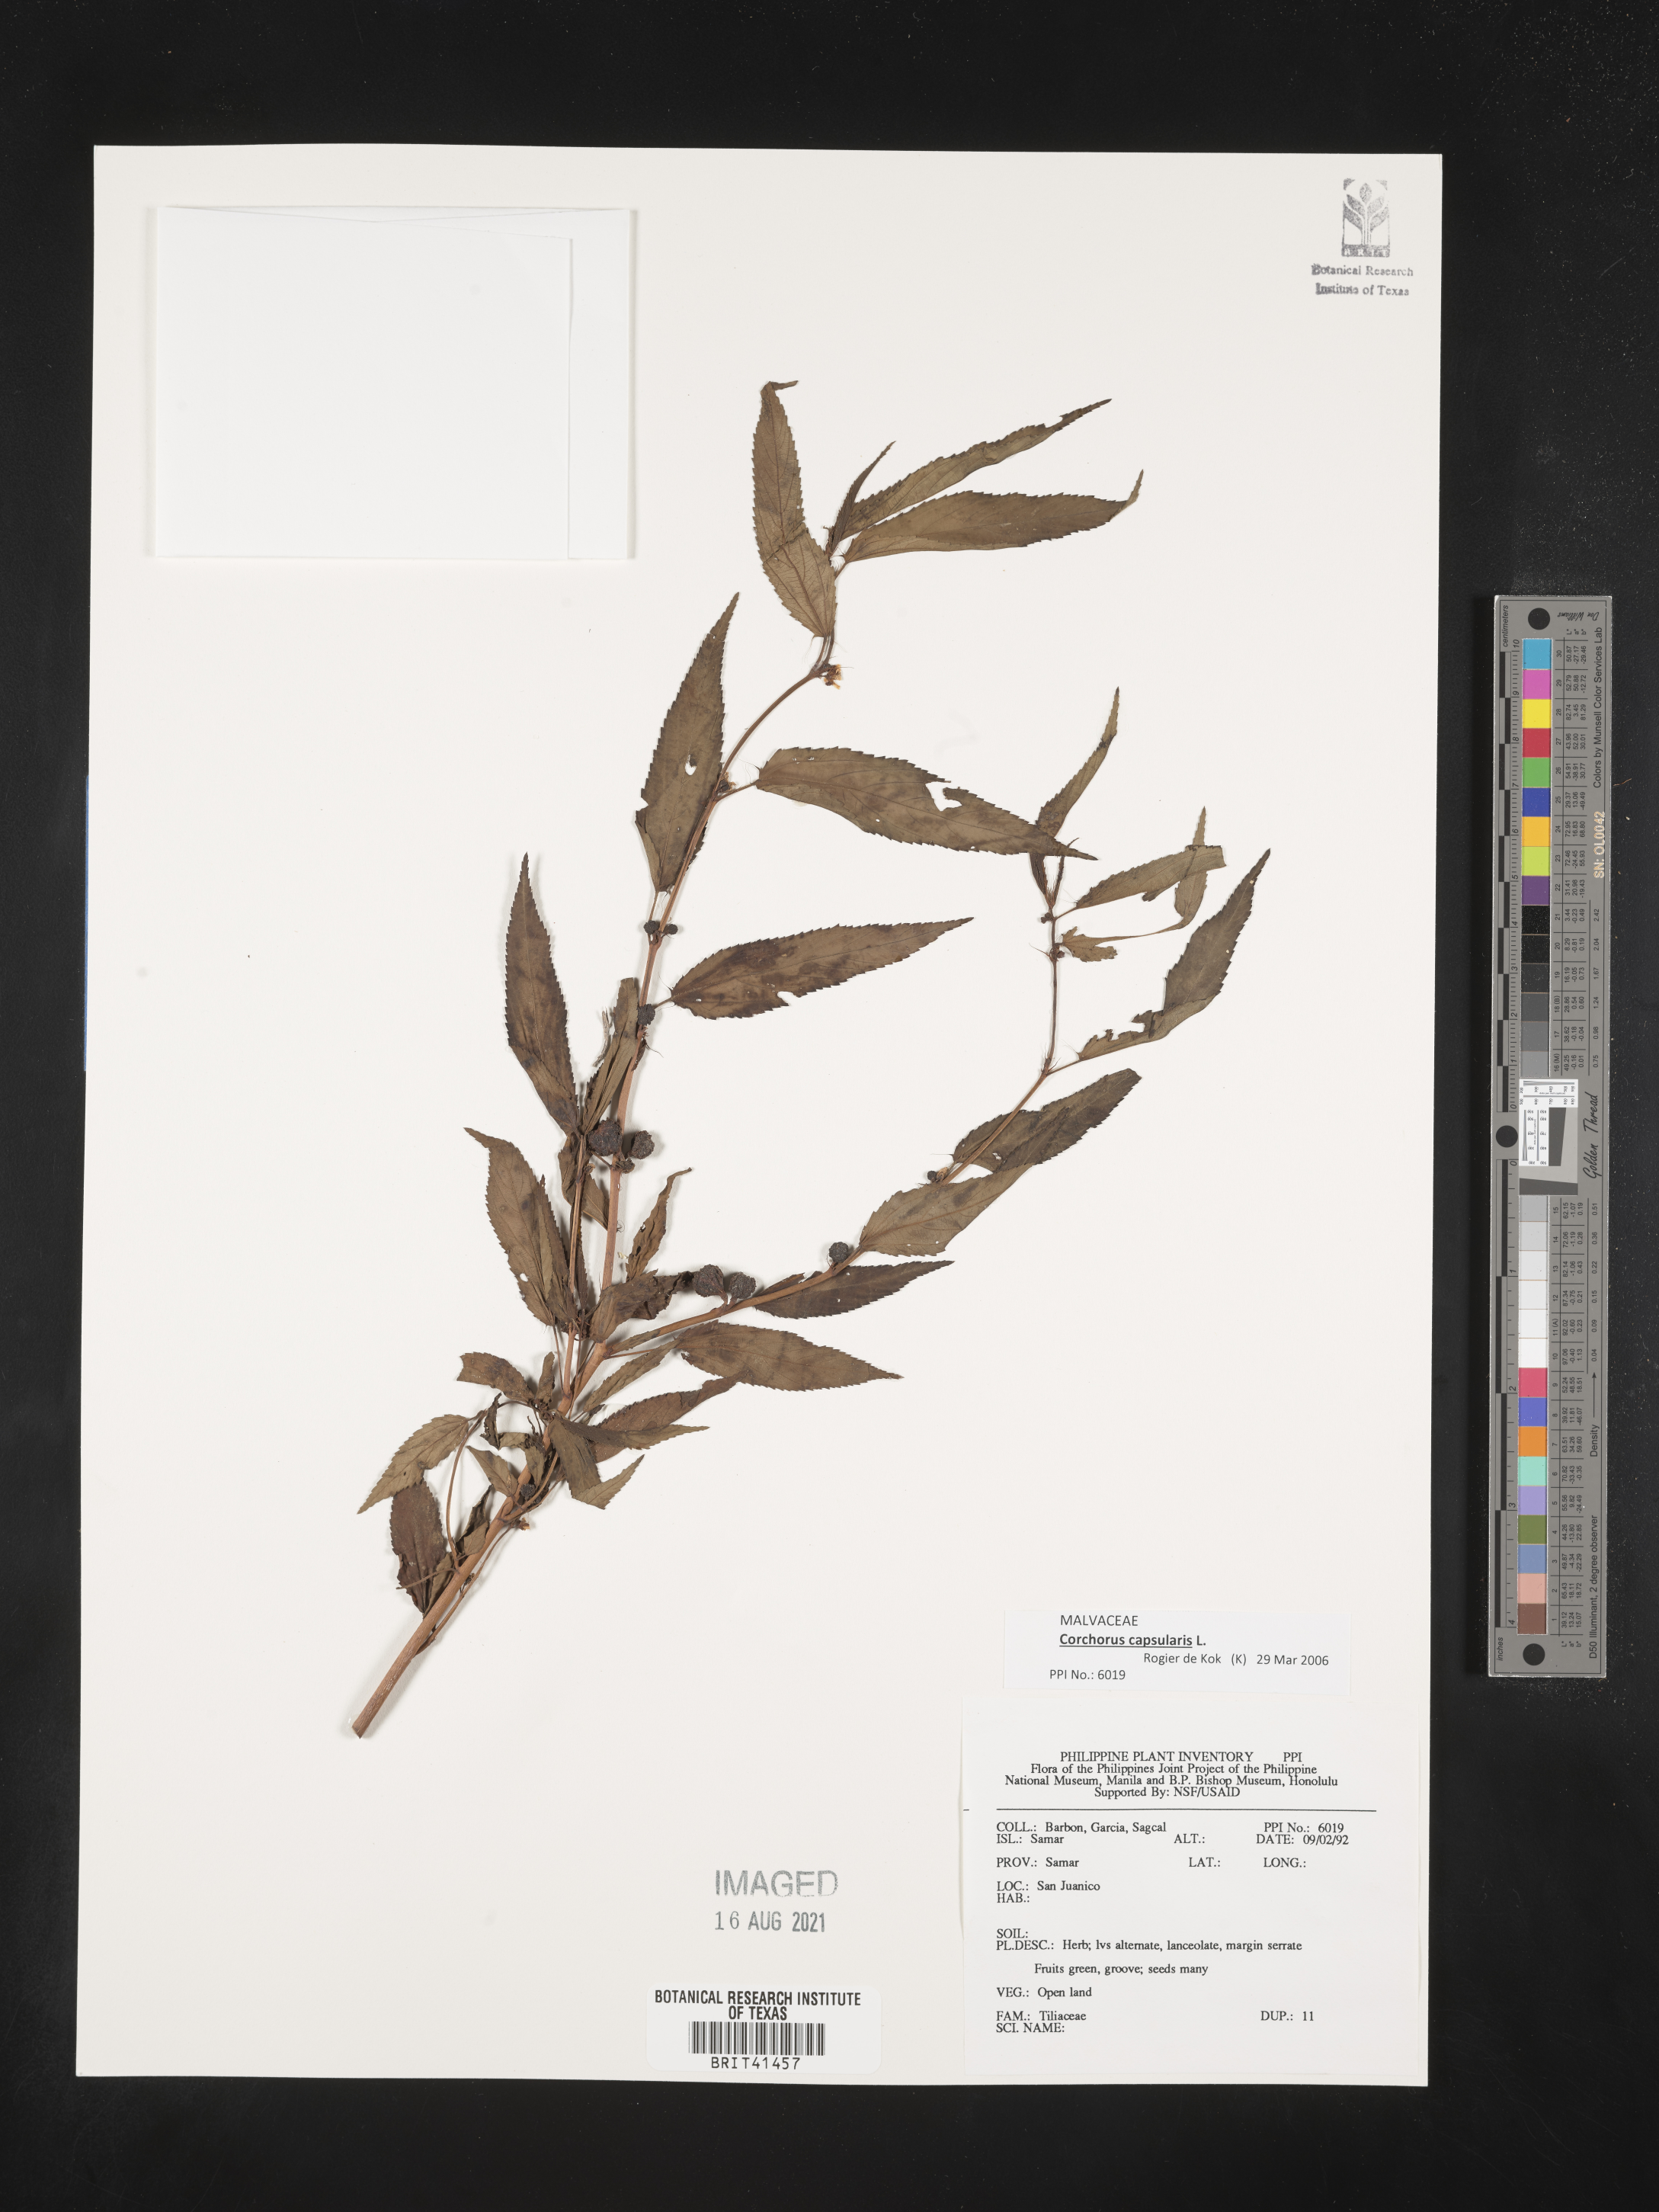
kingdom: Plantae
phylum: Tracheophyta
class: Magnoliopsida
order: Malvales
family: Tiliaceae
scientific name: Tiliaceae
